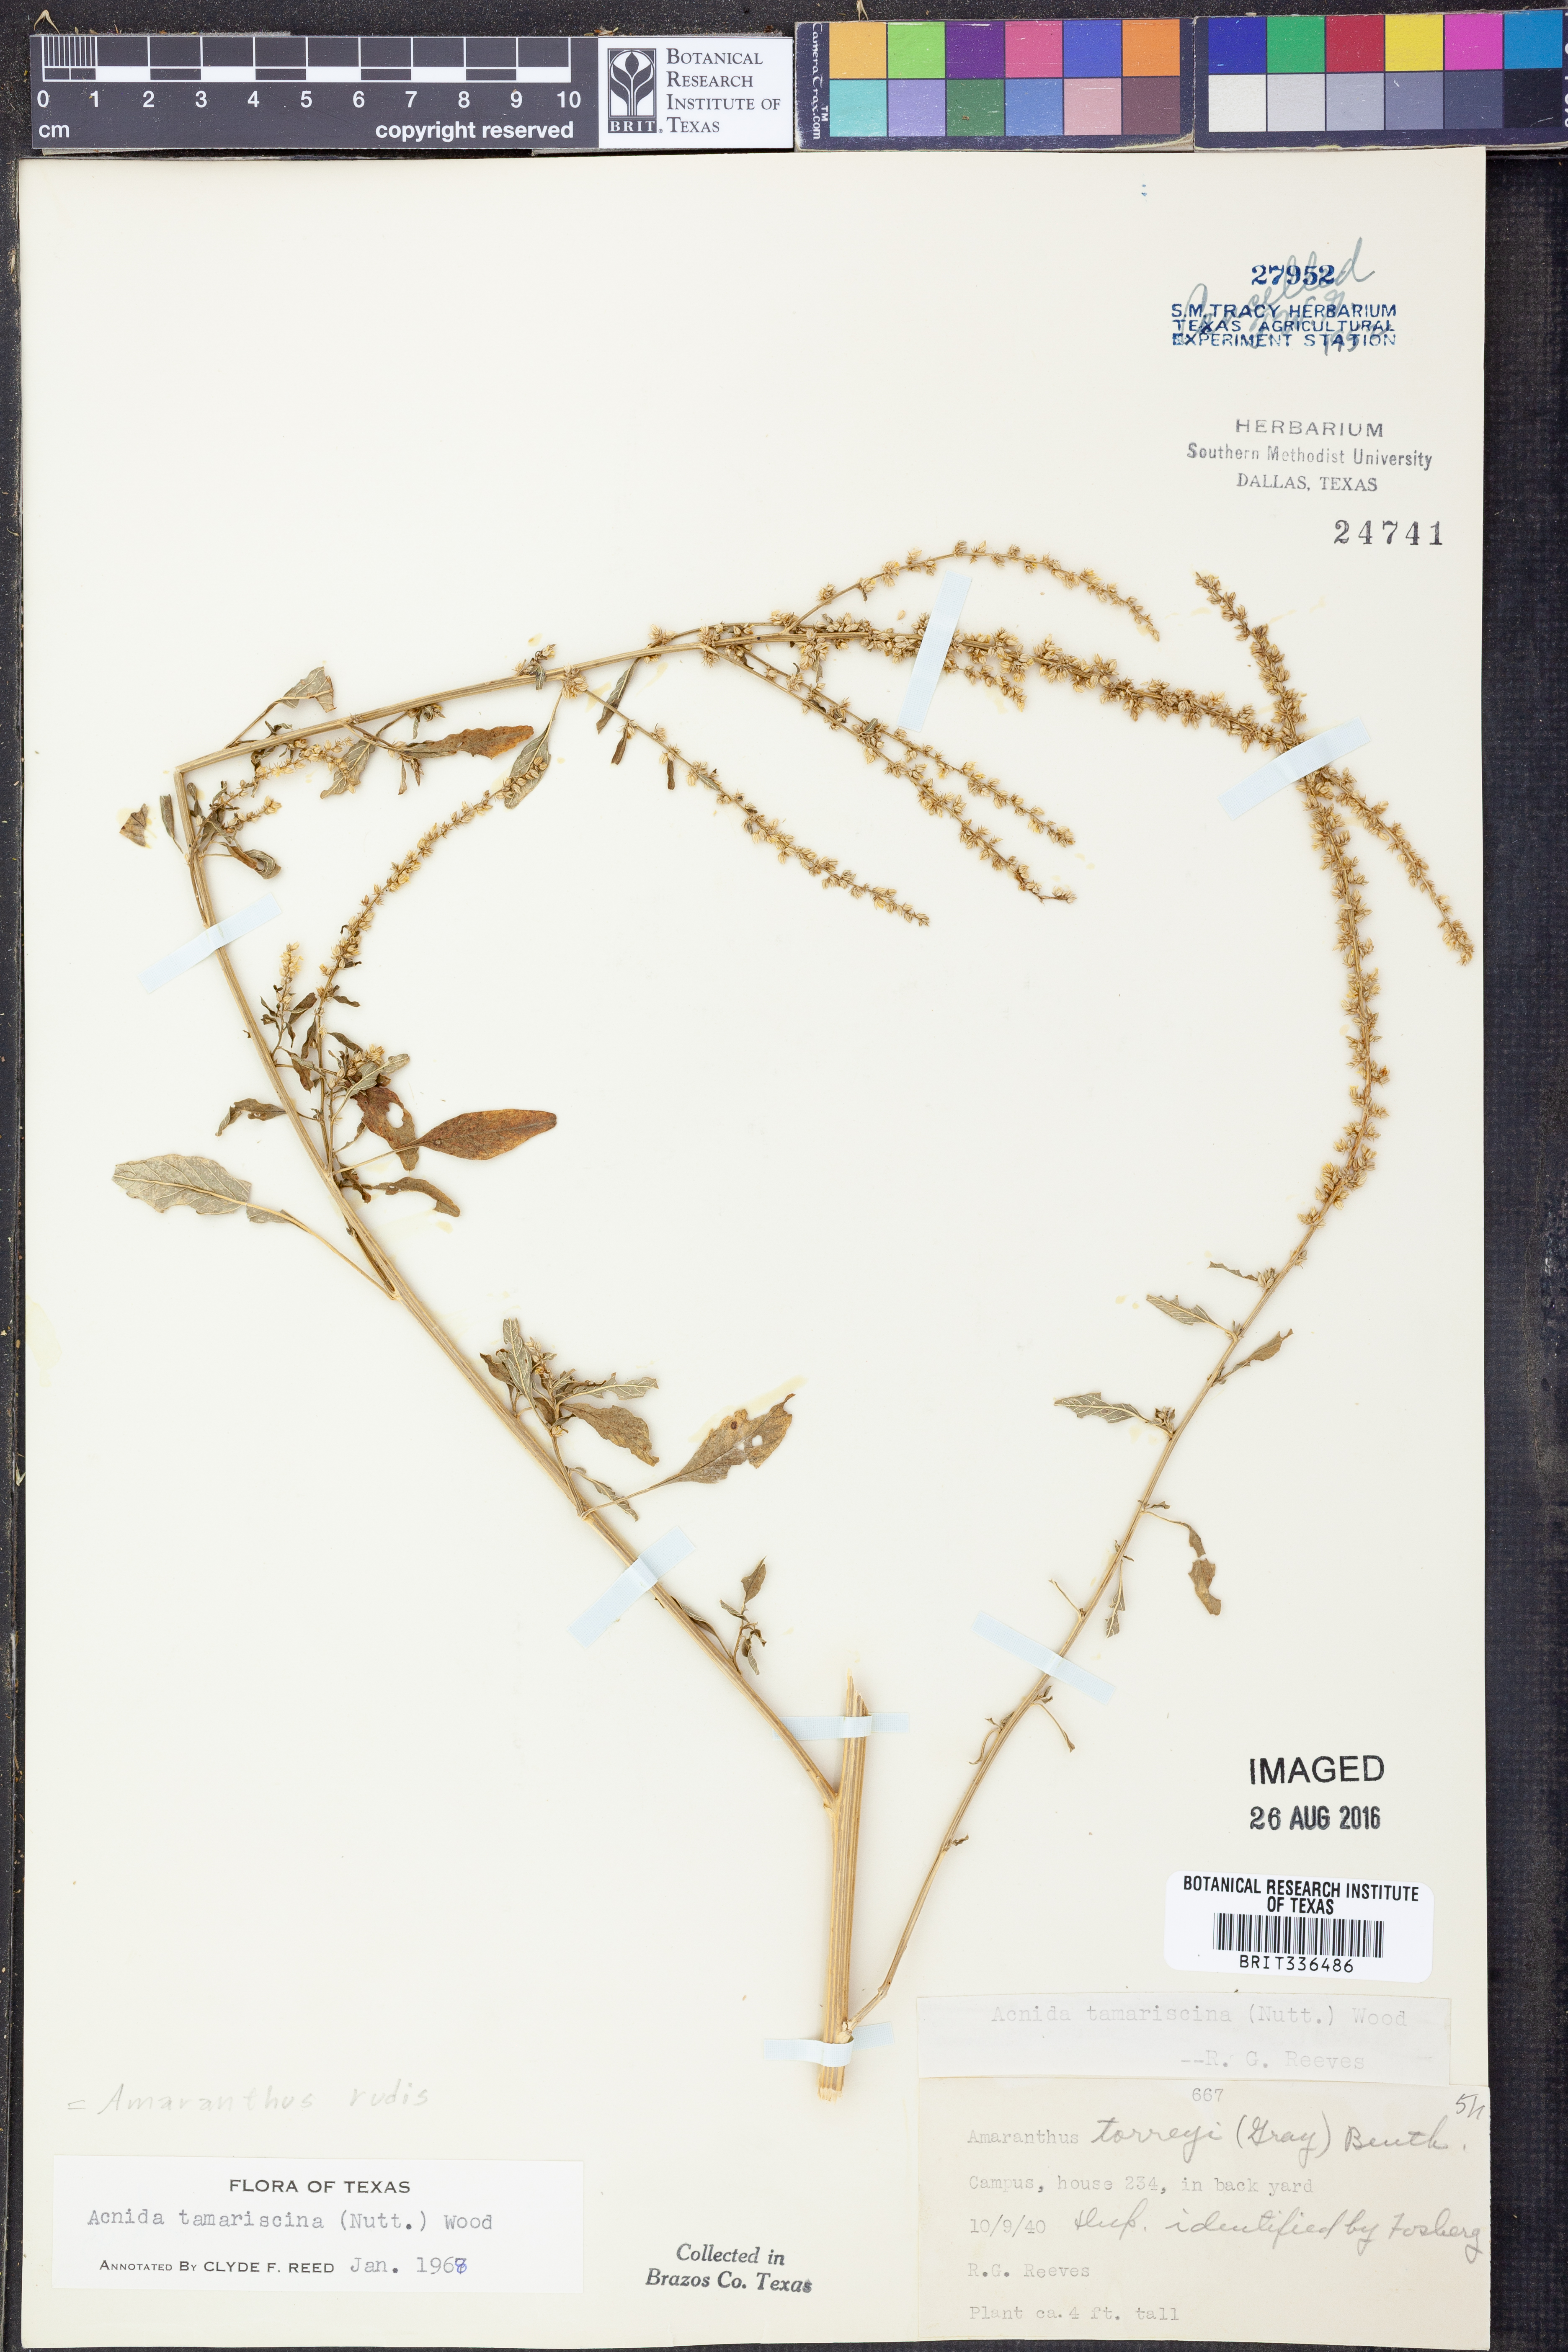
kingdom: Plantae
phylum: Tracheophyta
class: Magnoliopsida
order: Caryophyllales
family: Amaranthaceae
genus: Amaranthus
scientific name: Amaranthus tuberculatus
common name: Rough-fruit amaranth
